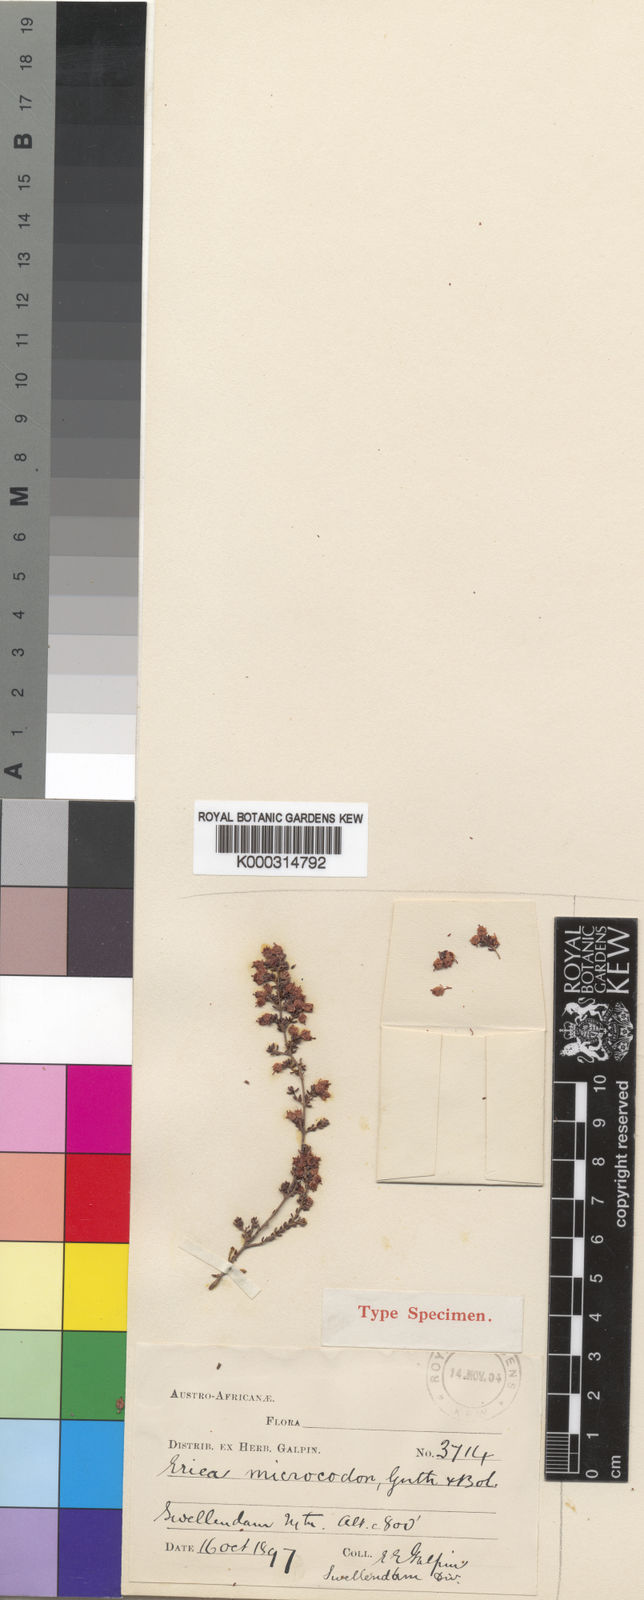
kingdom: Plantae
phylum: Tracheophyta
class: Magnoliopsida
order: Ericales
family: Ericaceae
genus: Erica
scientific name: Erica mundii
